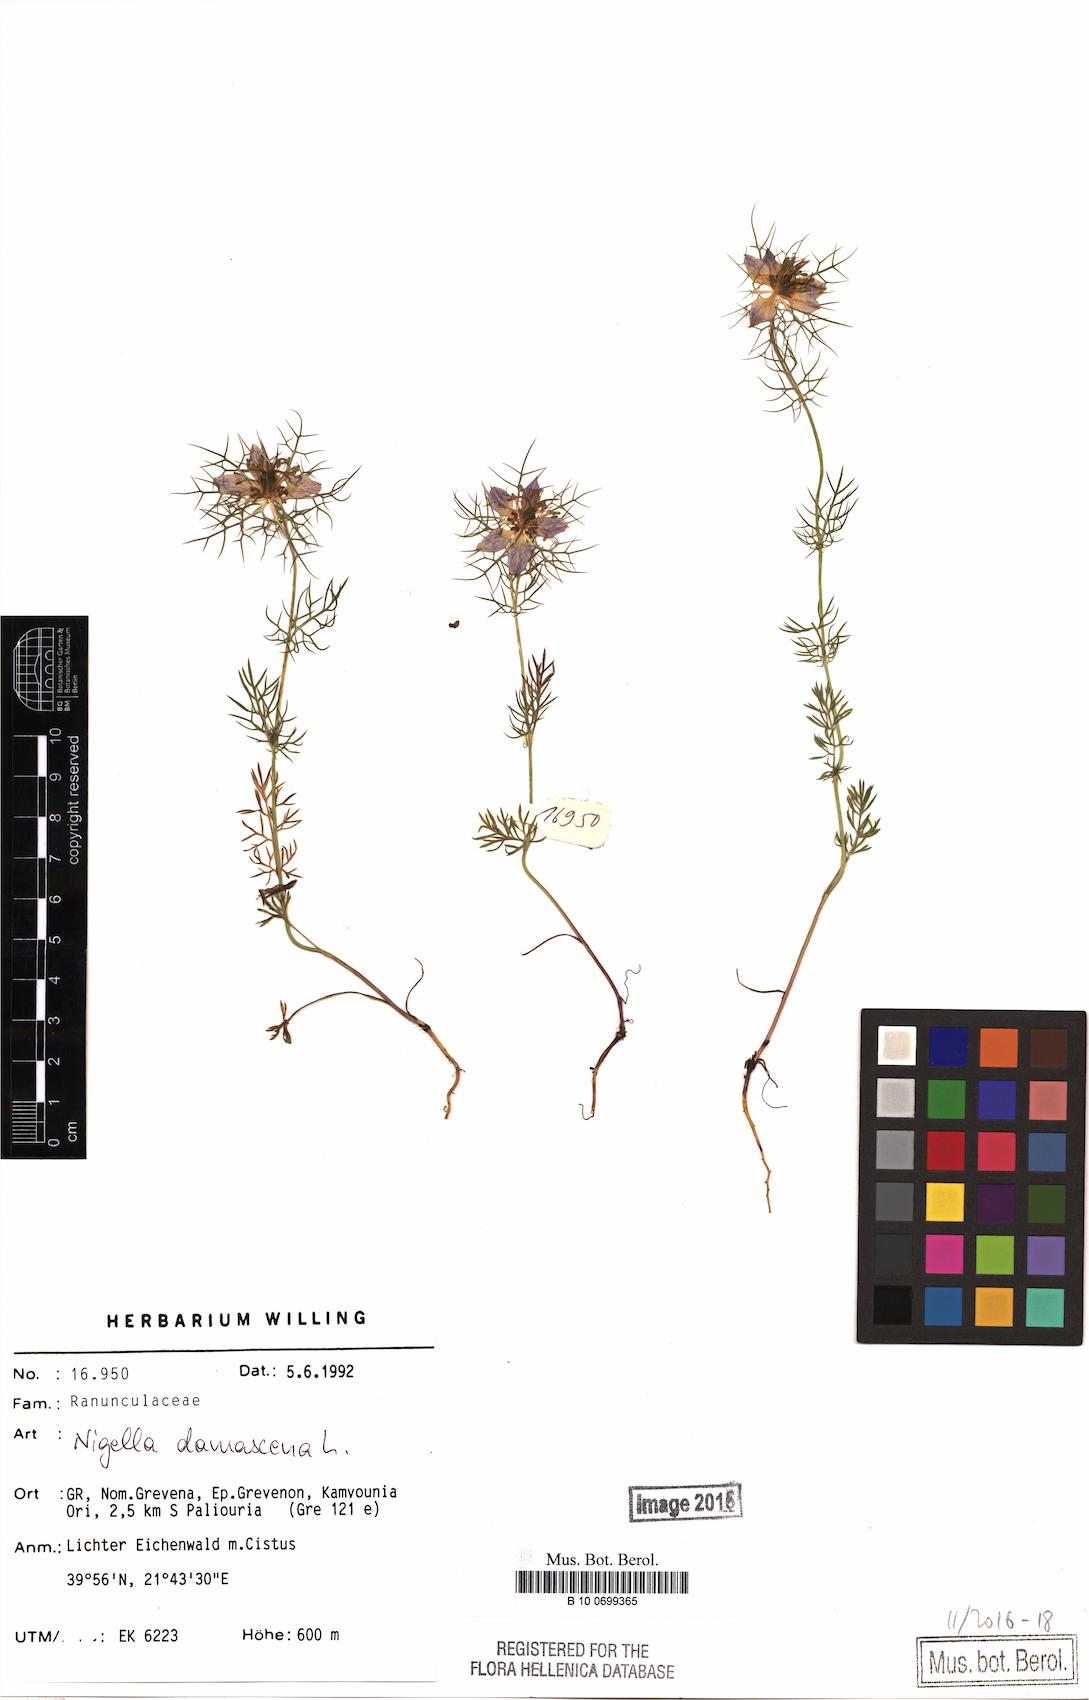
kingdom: Plantae
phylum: Tracheophyta
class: Magnoliopsida
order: Ranunculales
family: Ranunculaceae
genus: Nigella
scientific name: Nigella damascena
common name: Love-in-a-mist
